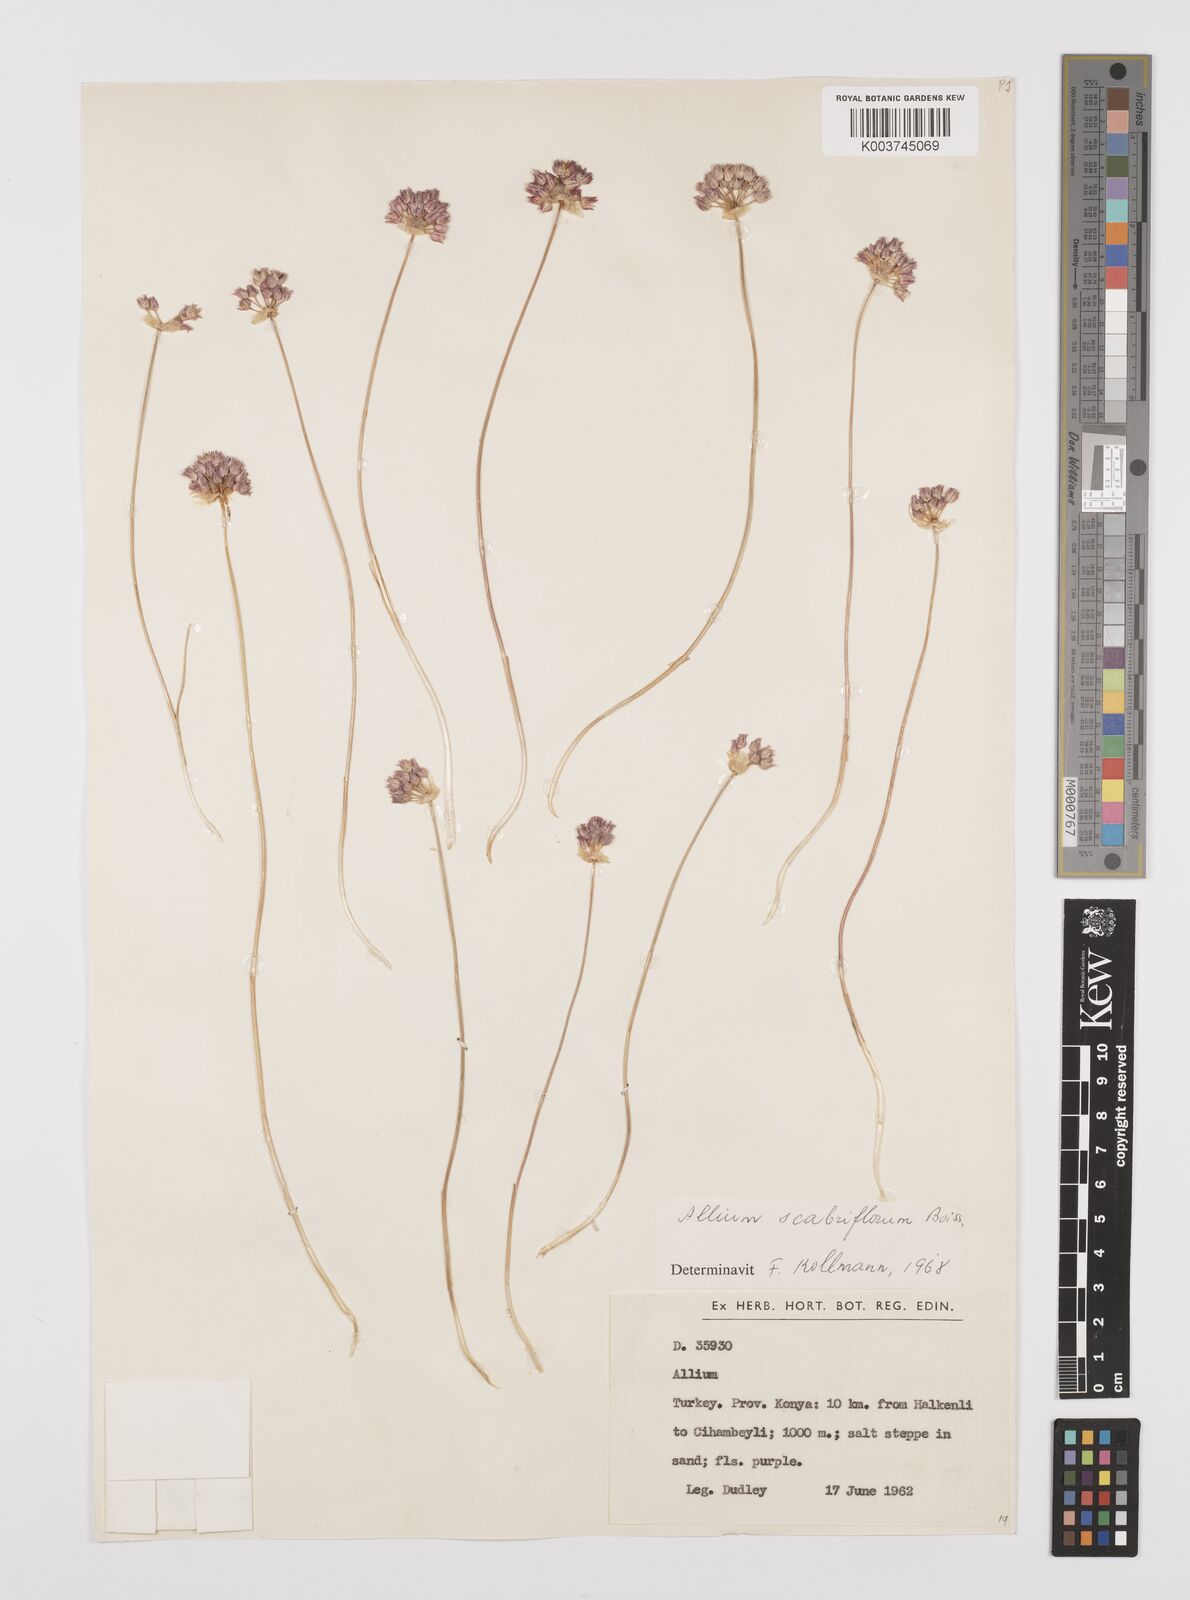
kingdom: Plantae
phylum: Tracheophyta
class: Liliopsida
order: Asparagales
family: Amaryllidaceae
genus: Allium
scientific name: Allium scabriflorum
